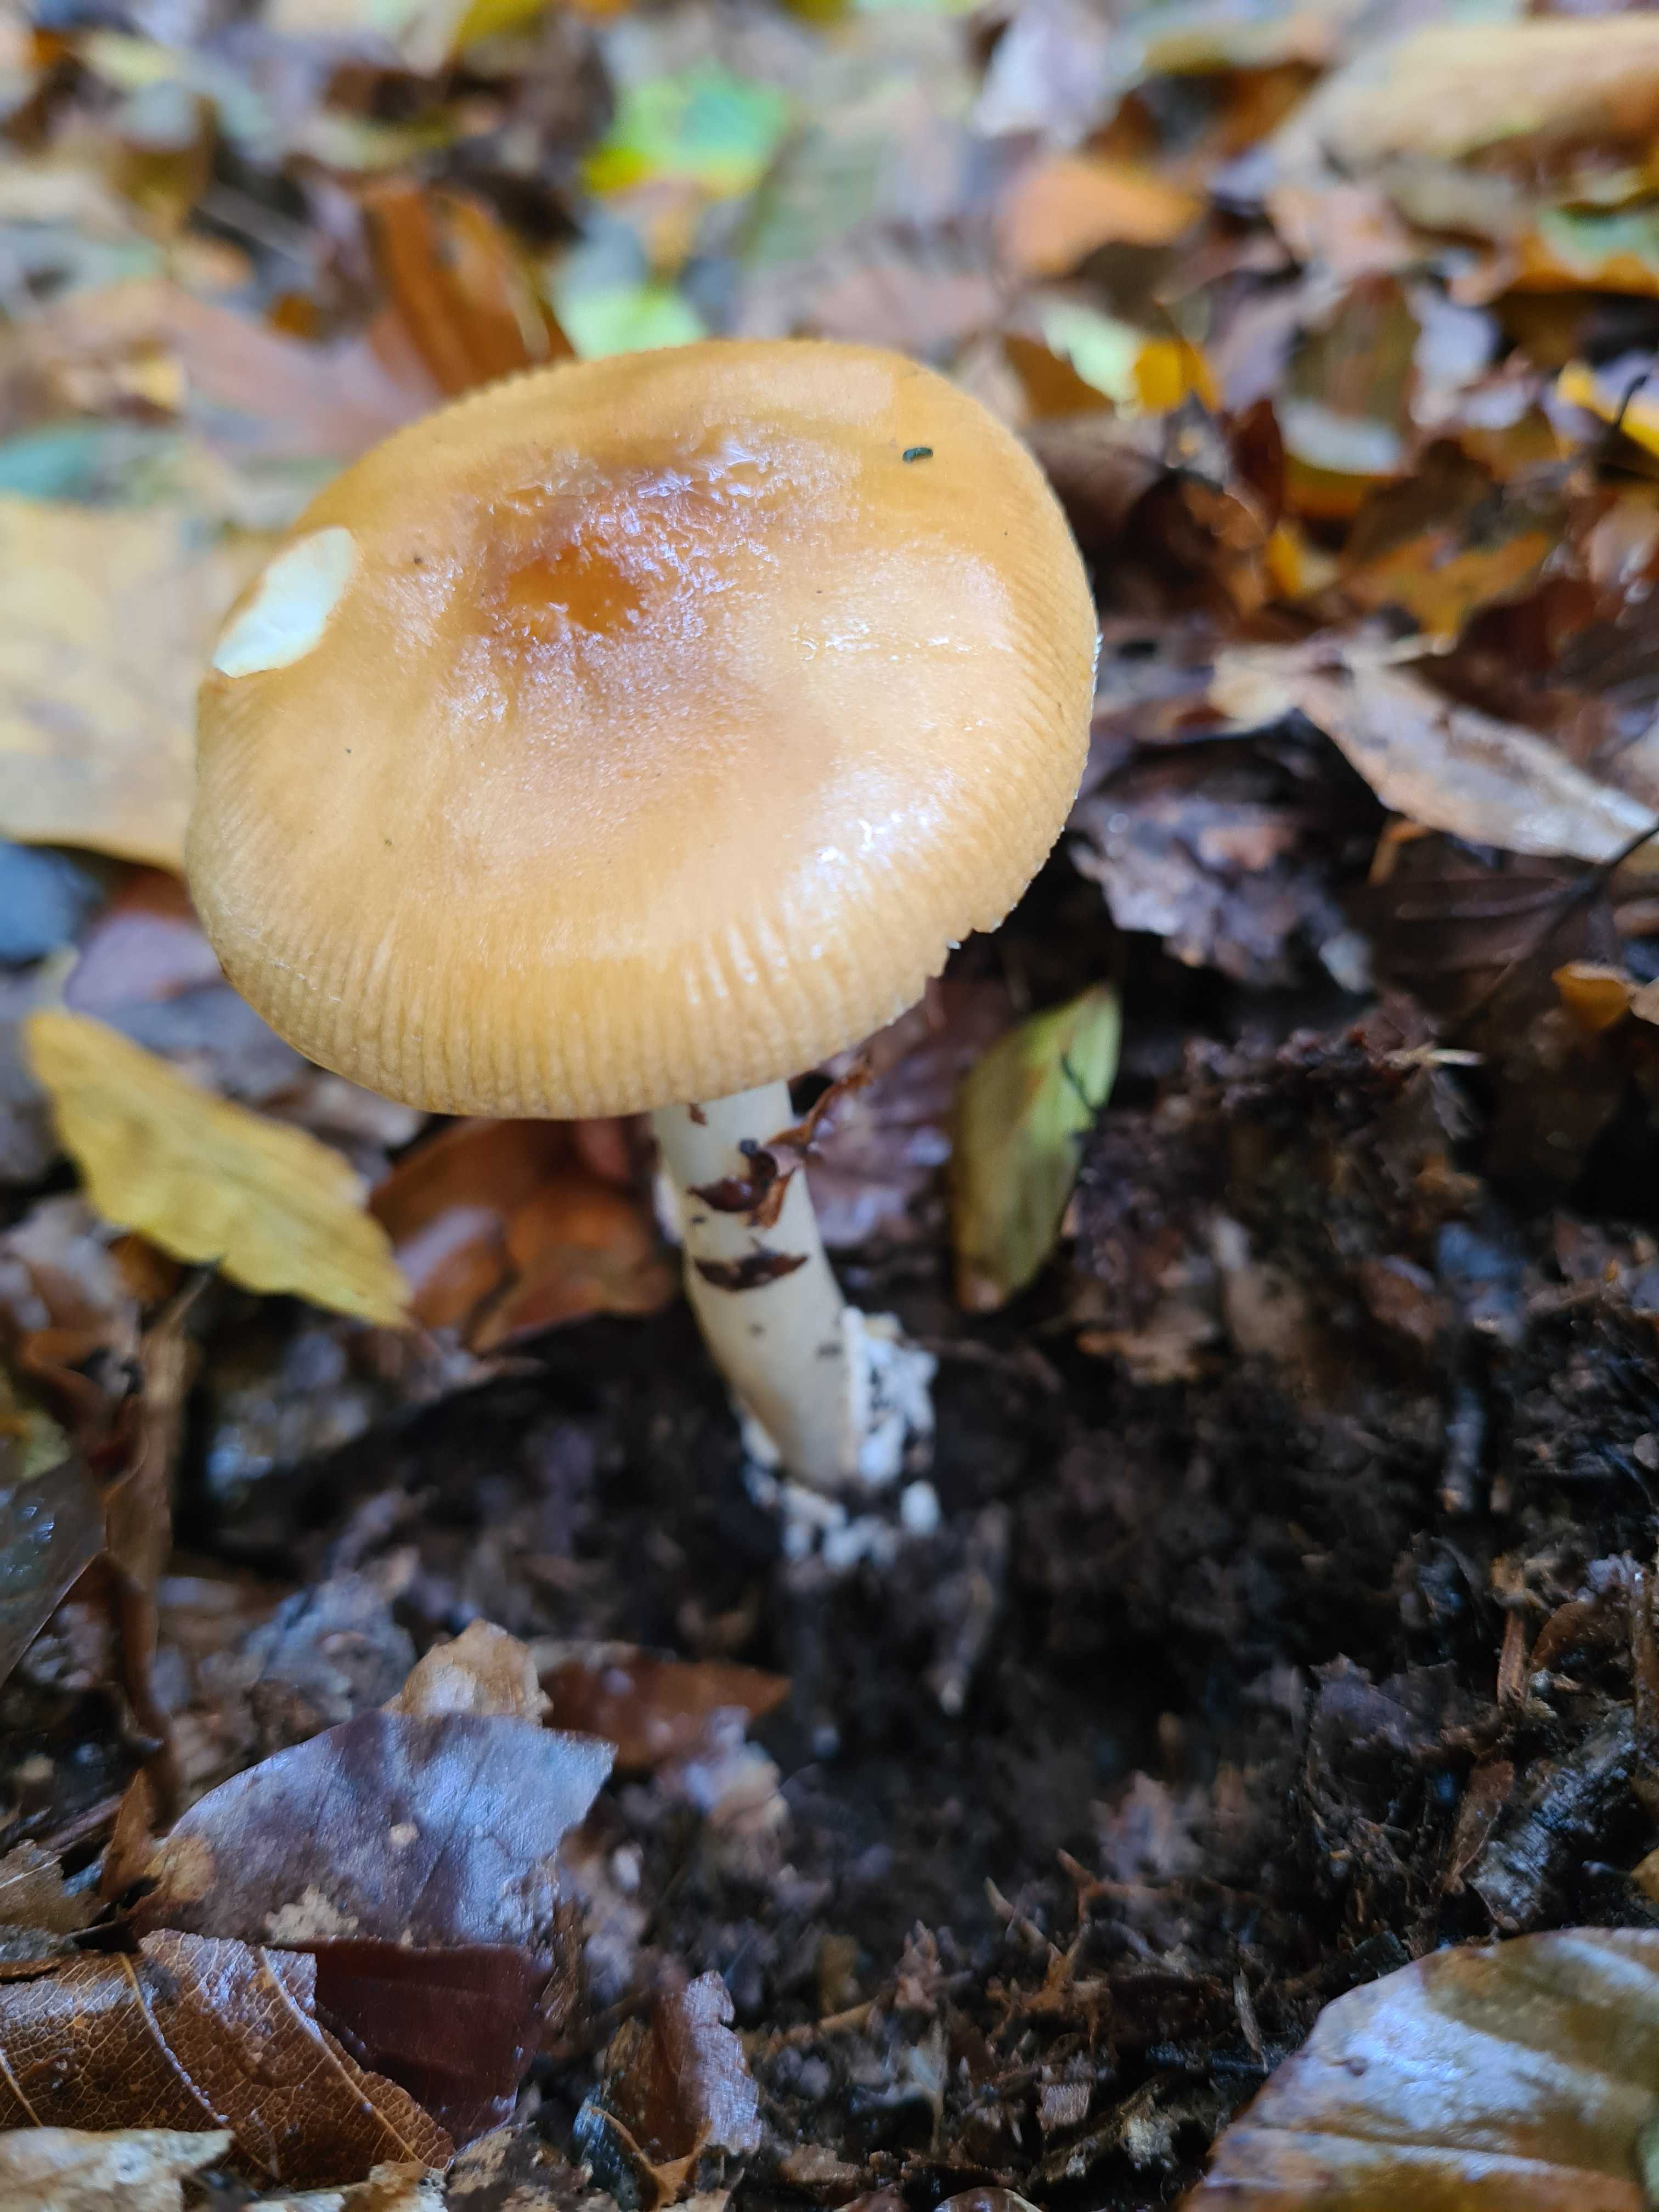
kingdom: Fungi
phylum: Basidiomycota
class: Agaricomycetes
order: Agaricales
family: Amanitaceae
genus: Amanita
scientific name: Amanita fulva
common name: brun kam-fluesvamp
